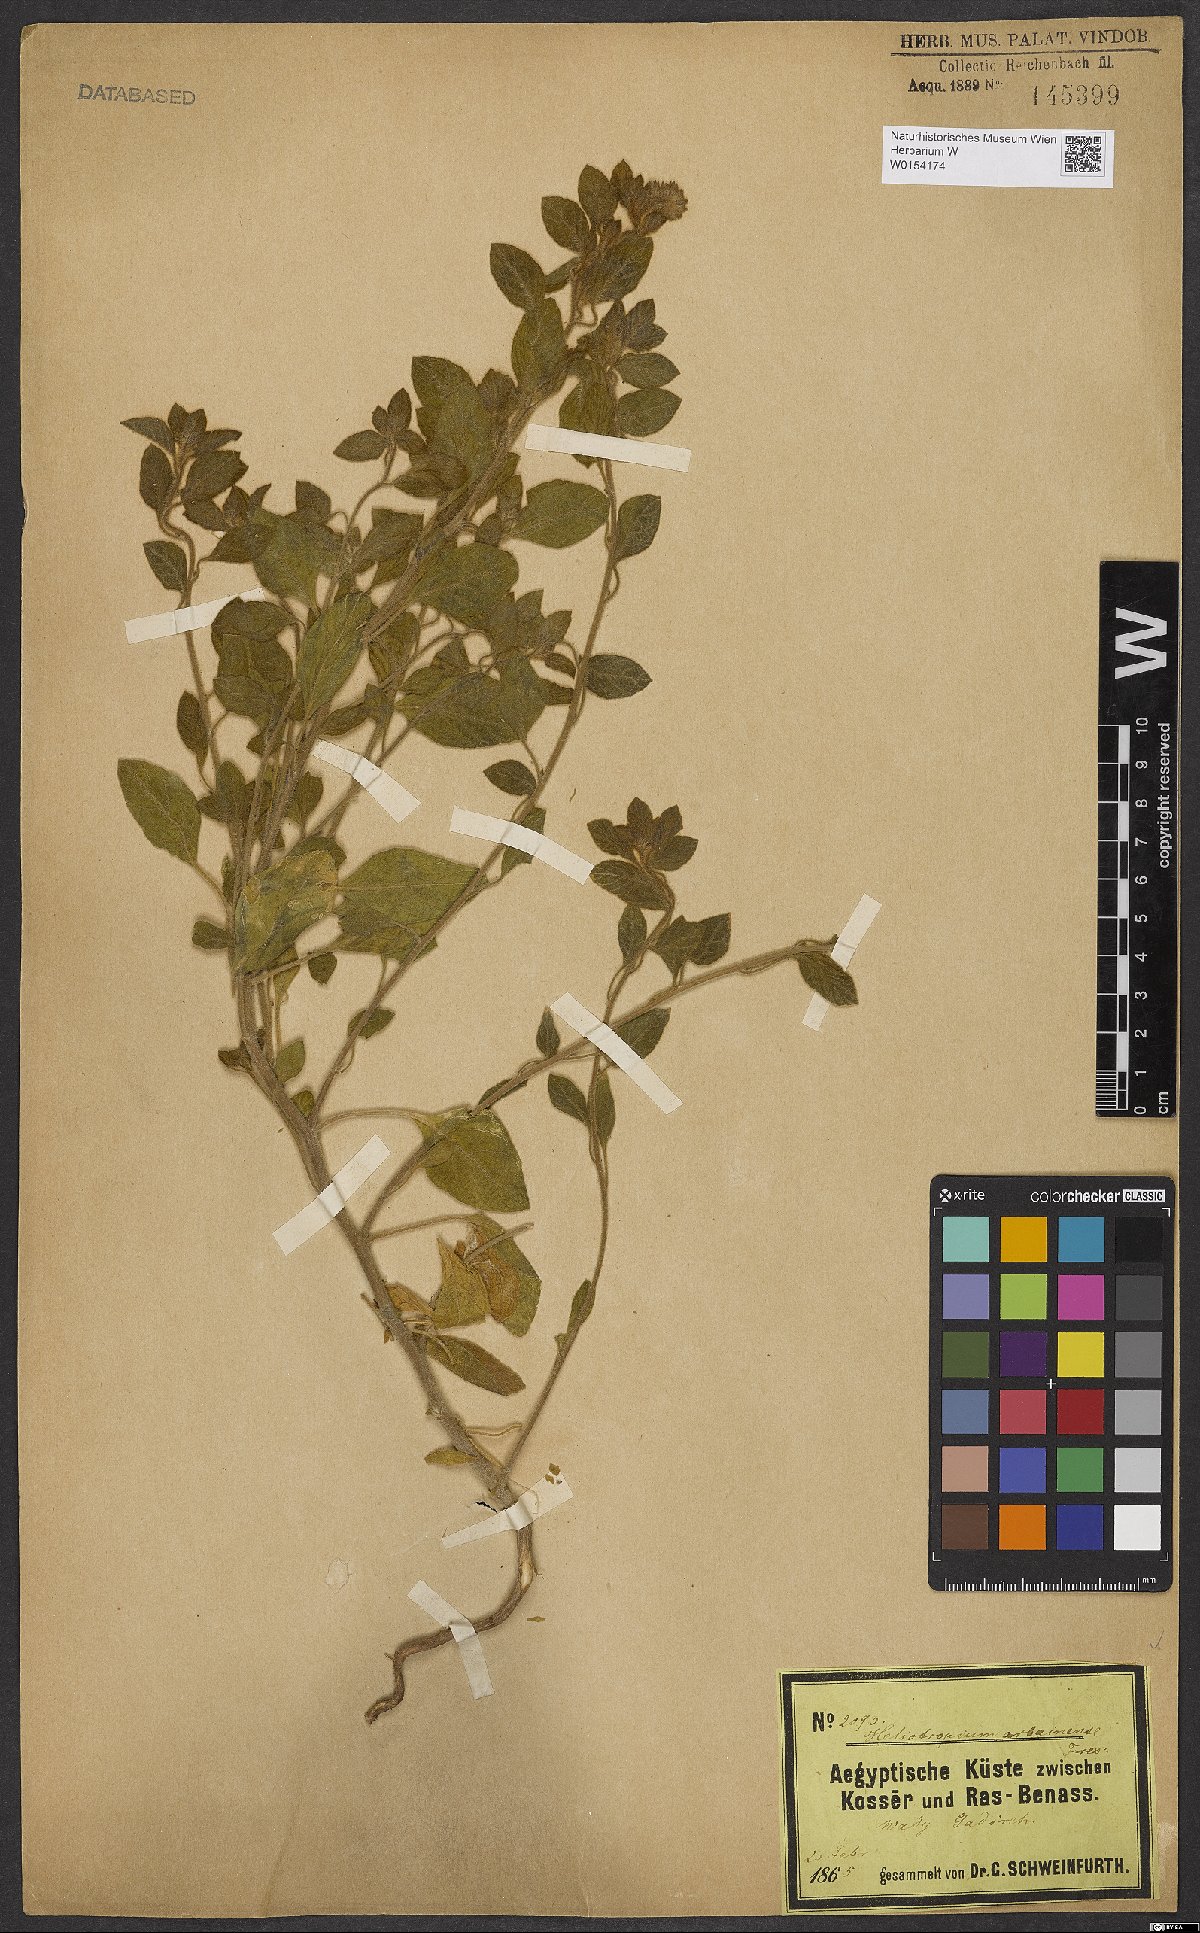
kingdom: Plantae
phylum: Tracheophyta
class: Magnoliopsida
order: Boraginales
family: Heliotropiaceae
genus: Heliotropium
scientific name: Heliotropium arbainense
